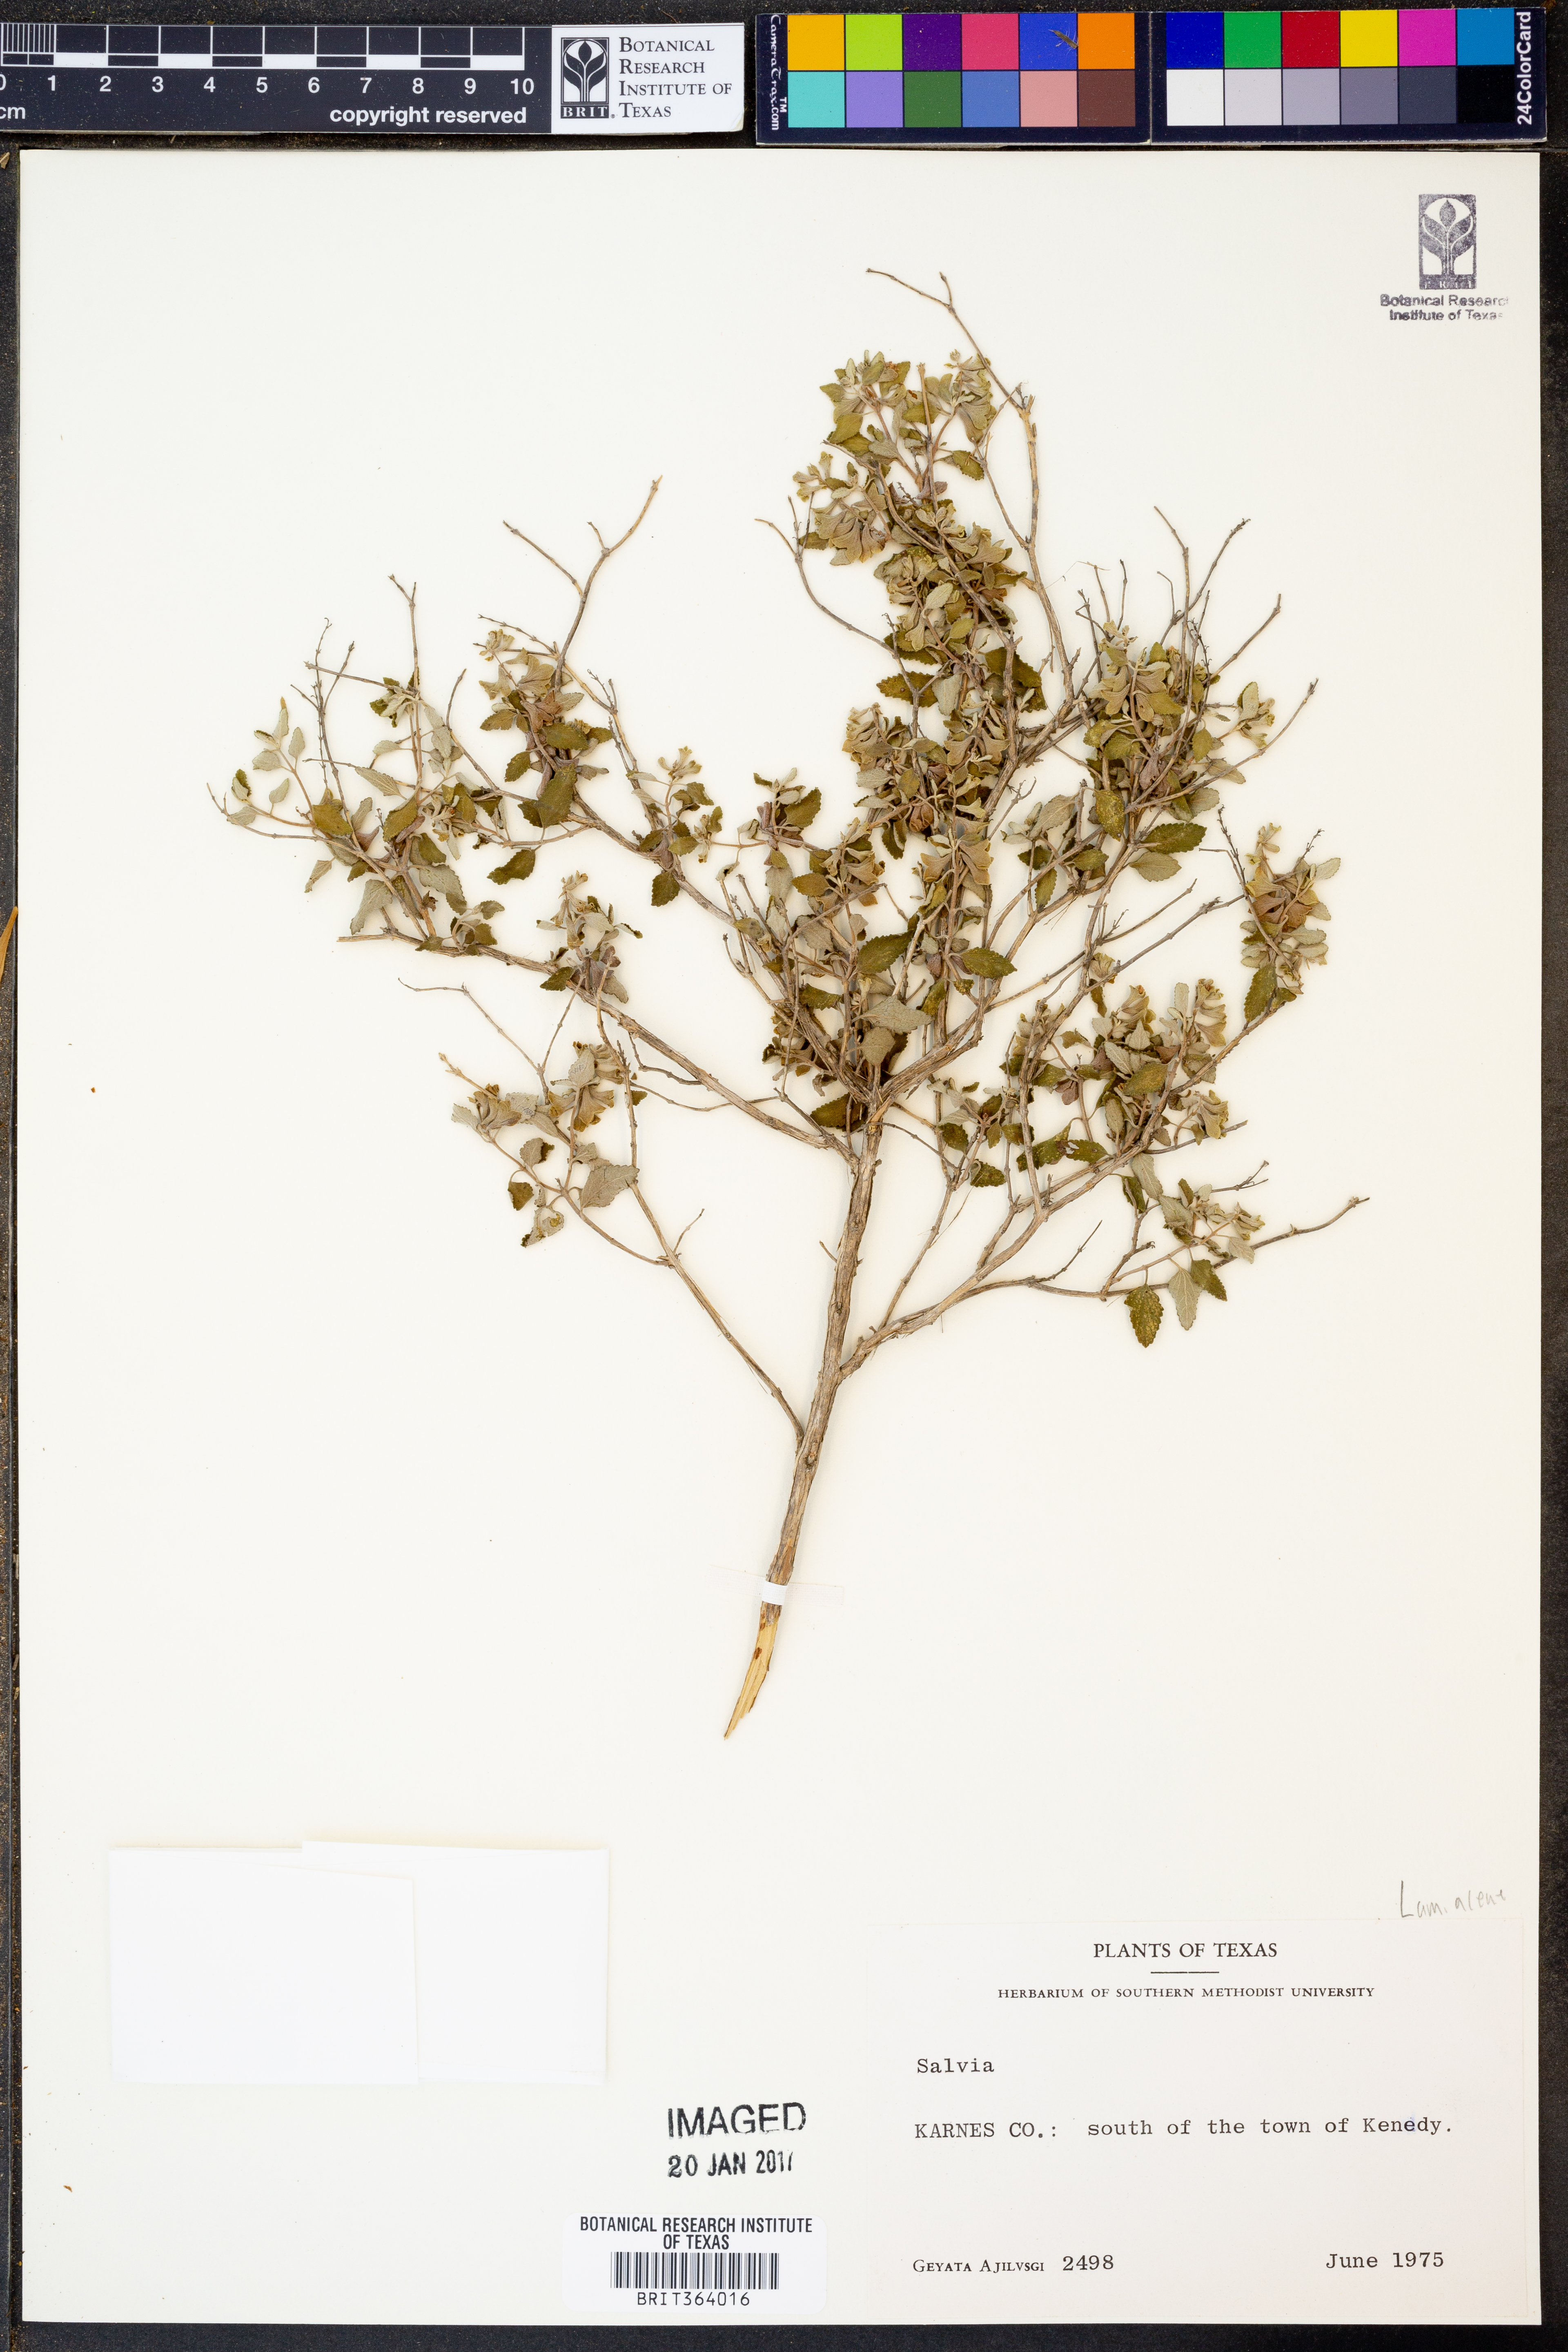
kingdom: Plantae
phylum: Tracheophyta
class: Magnoliopsida
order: Lamiales
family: Lamiaceae
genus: Salvia
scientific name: Salvia
